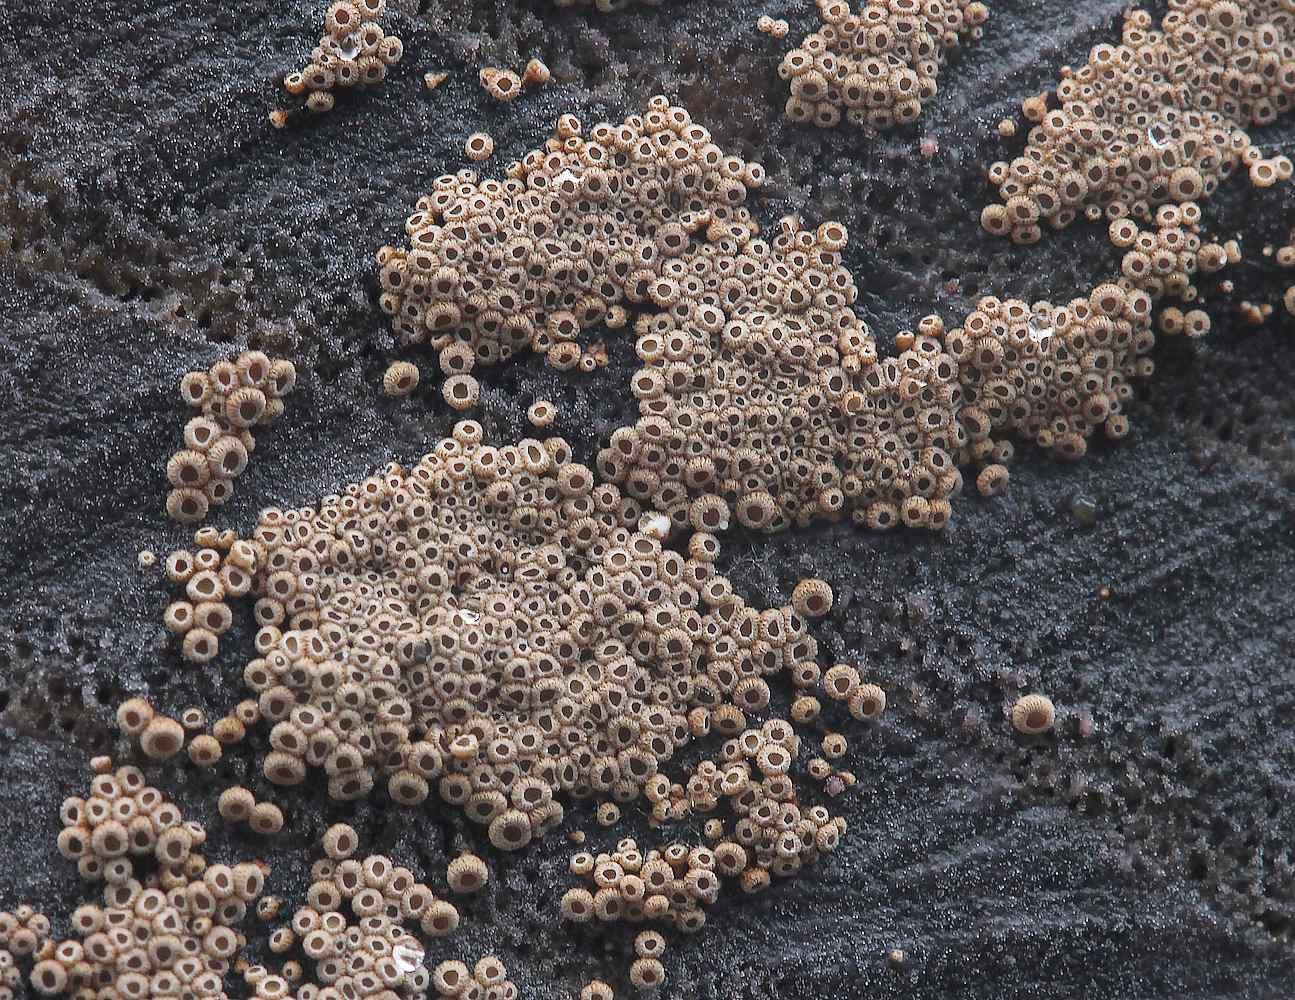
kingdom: Fungi
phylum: Basidiomycota
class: Agaricomycetes
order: Agaricales
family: Niaceae
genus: Merismodes
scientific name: Merismodes anomala
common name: almindelig læderskål
